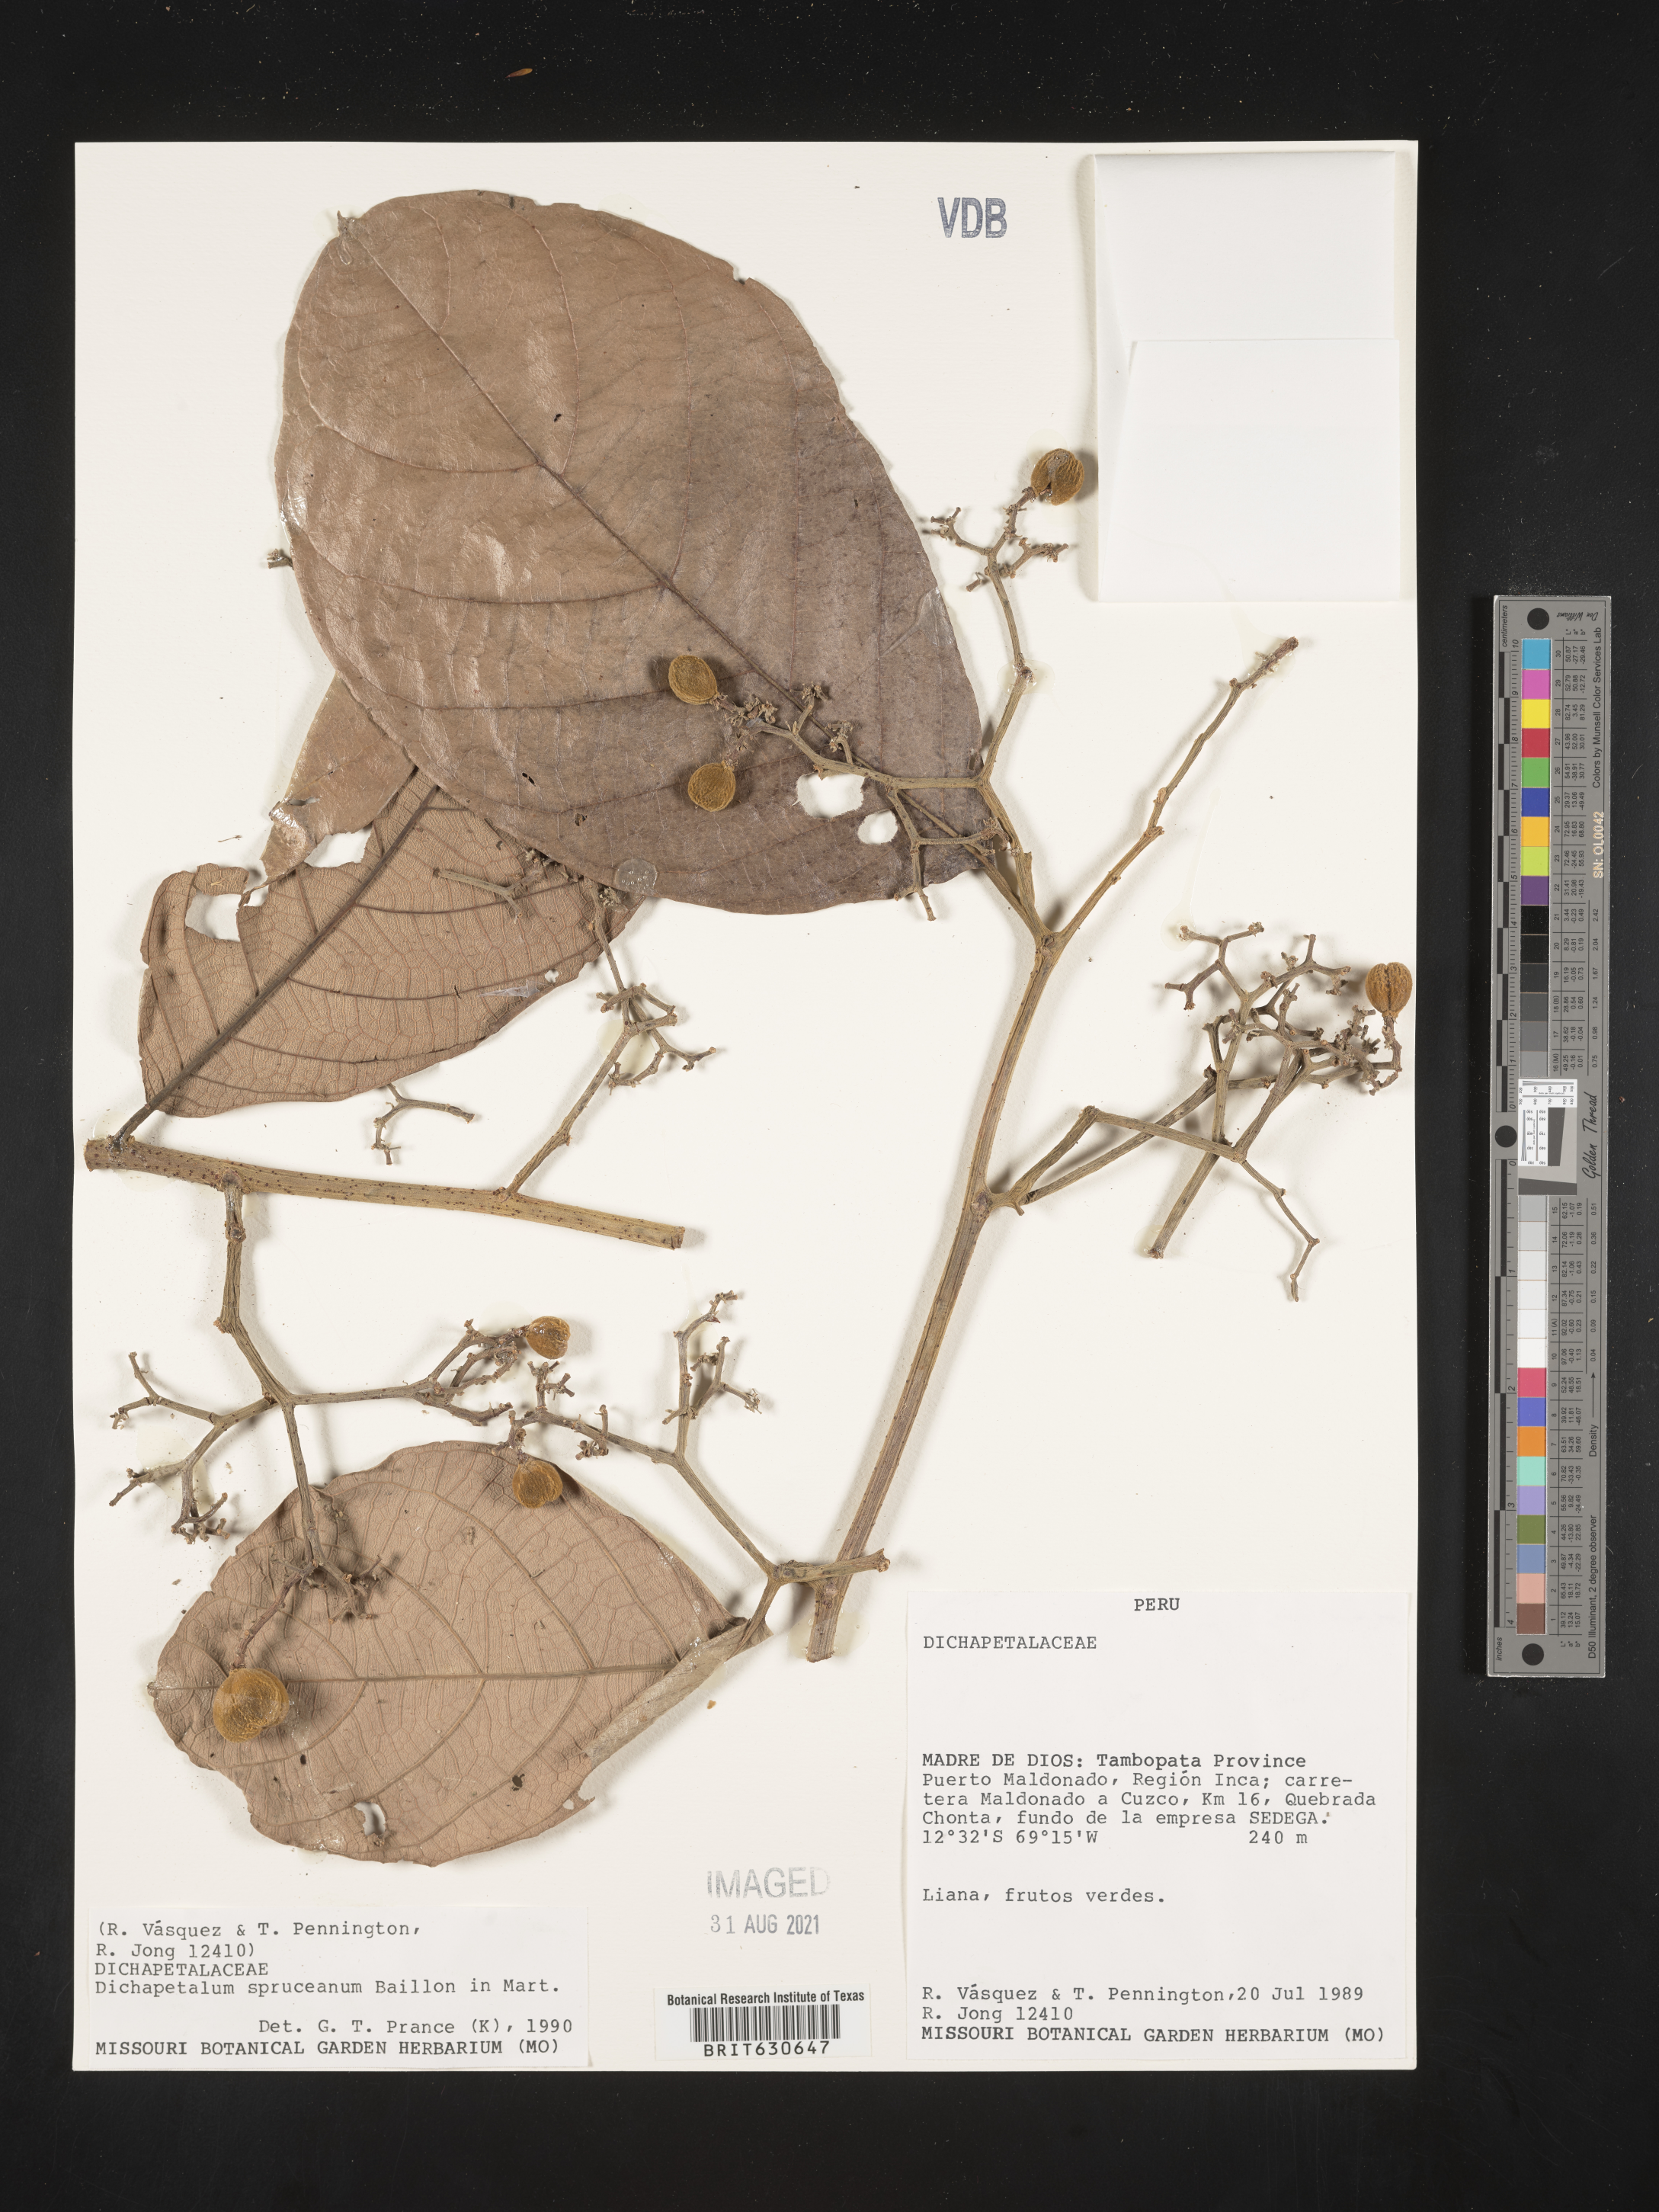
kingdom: Plantae
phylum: Tracheophyta
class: Magnoliopsida
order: Malpighiales
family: Dichapetalaceae
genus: Dichapetalum
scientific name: Dichapetalum
